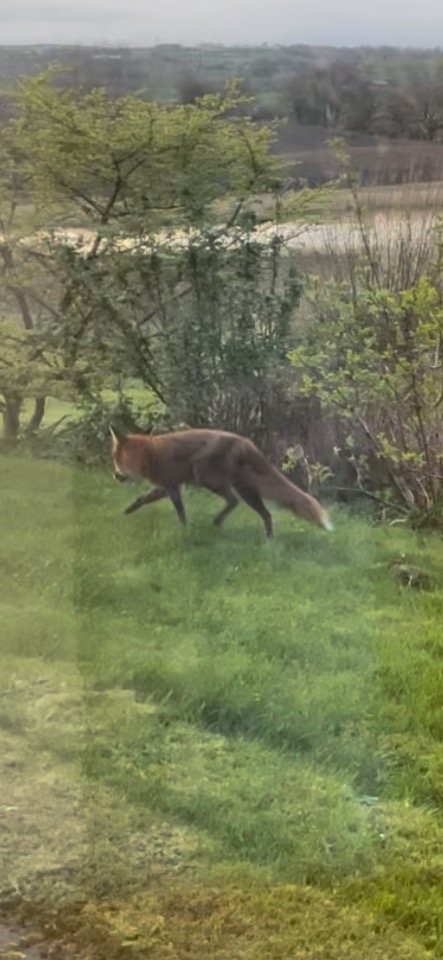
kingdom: Animalia
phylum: Chordata
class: Mammalia
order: Carnivora
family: Canidae
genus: Vulpes
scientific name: Vulpes vulpes
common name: Ræv
